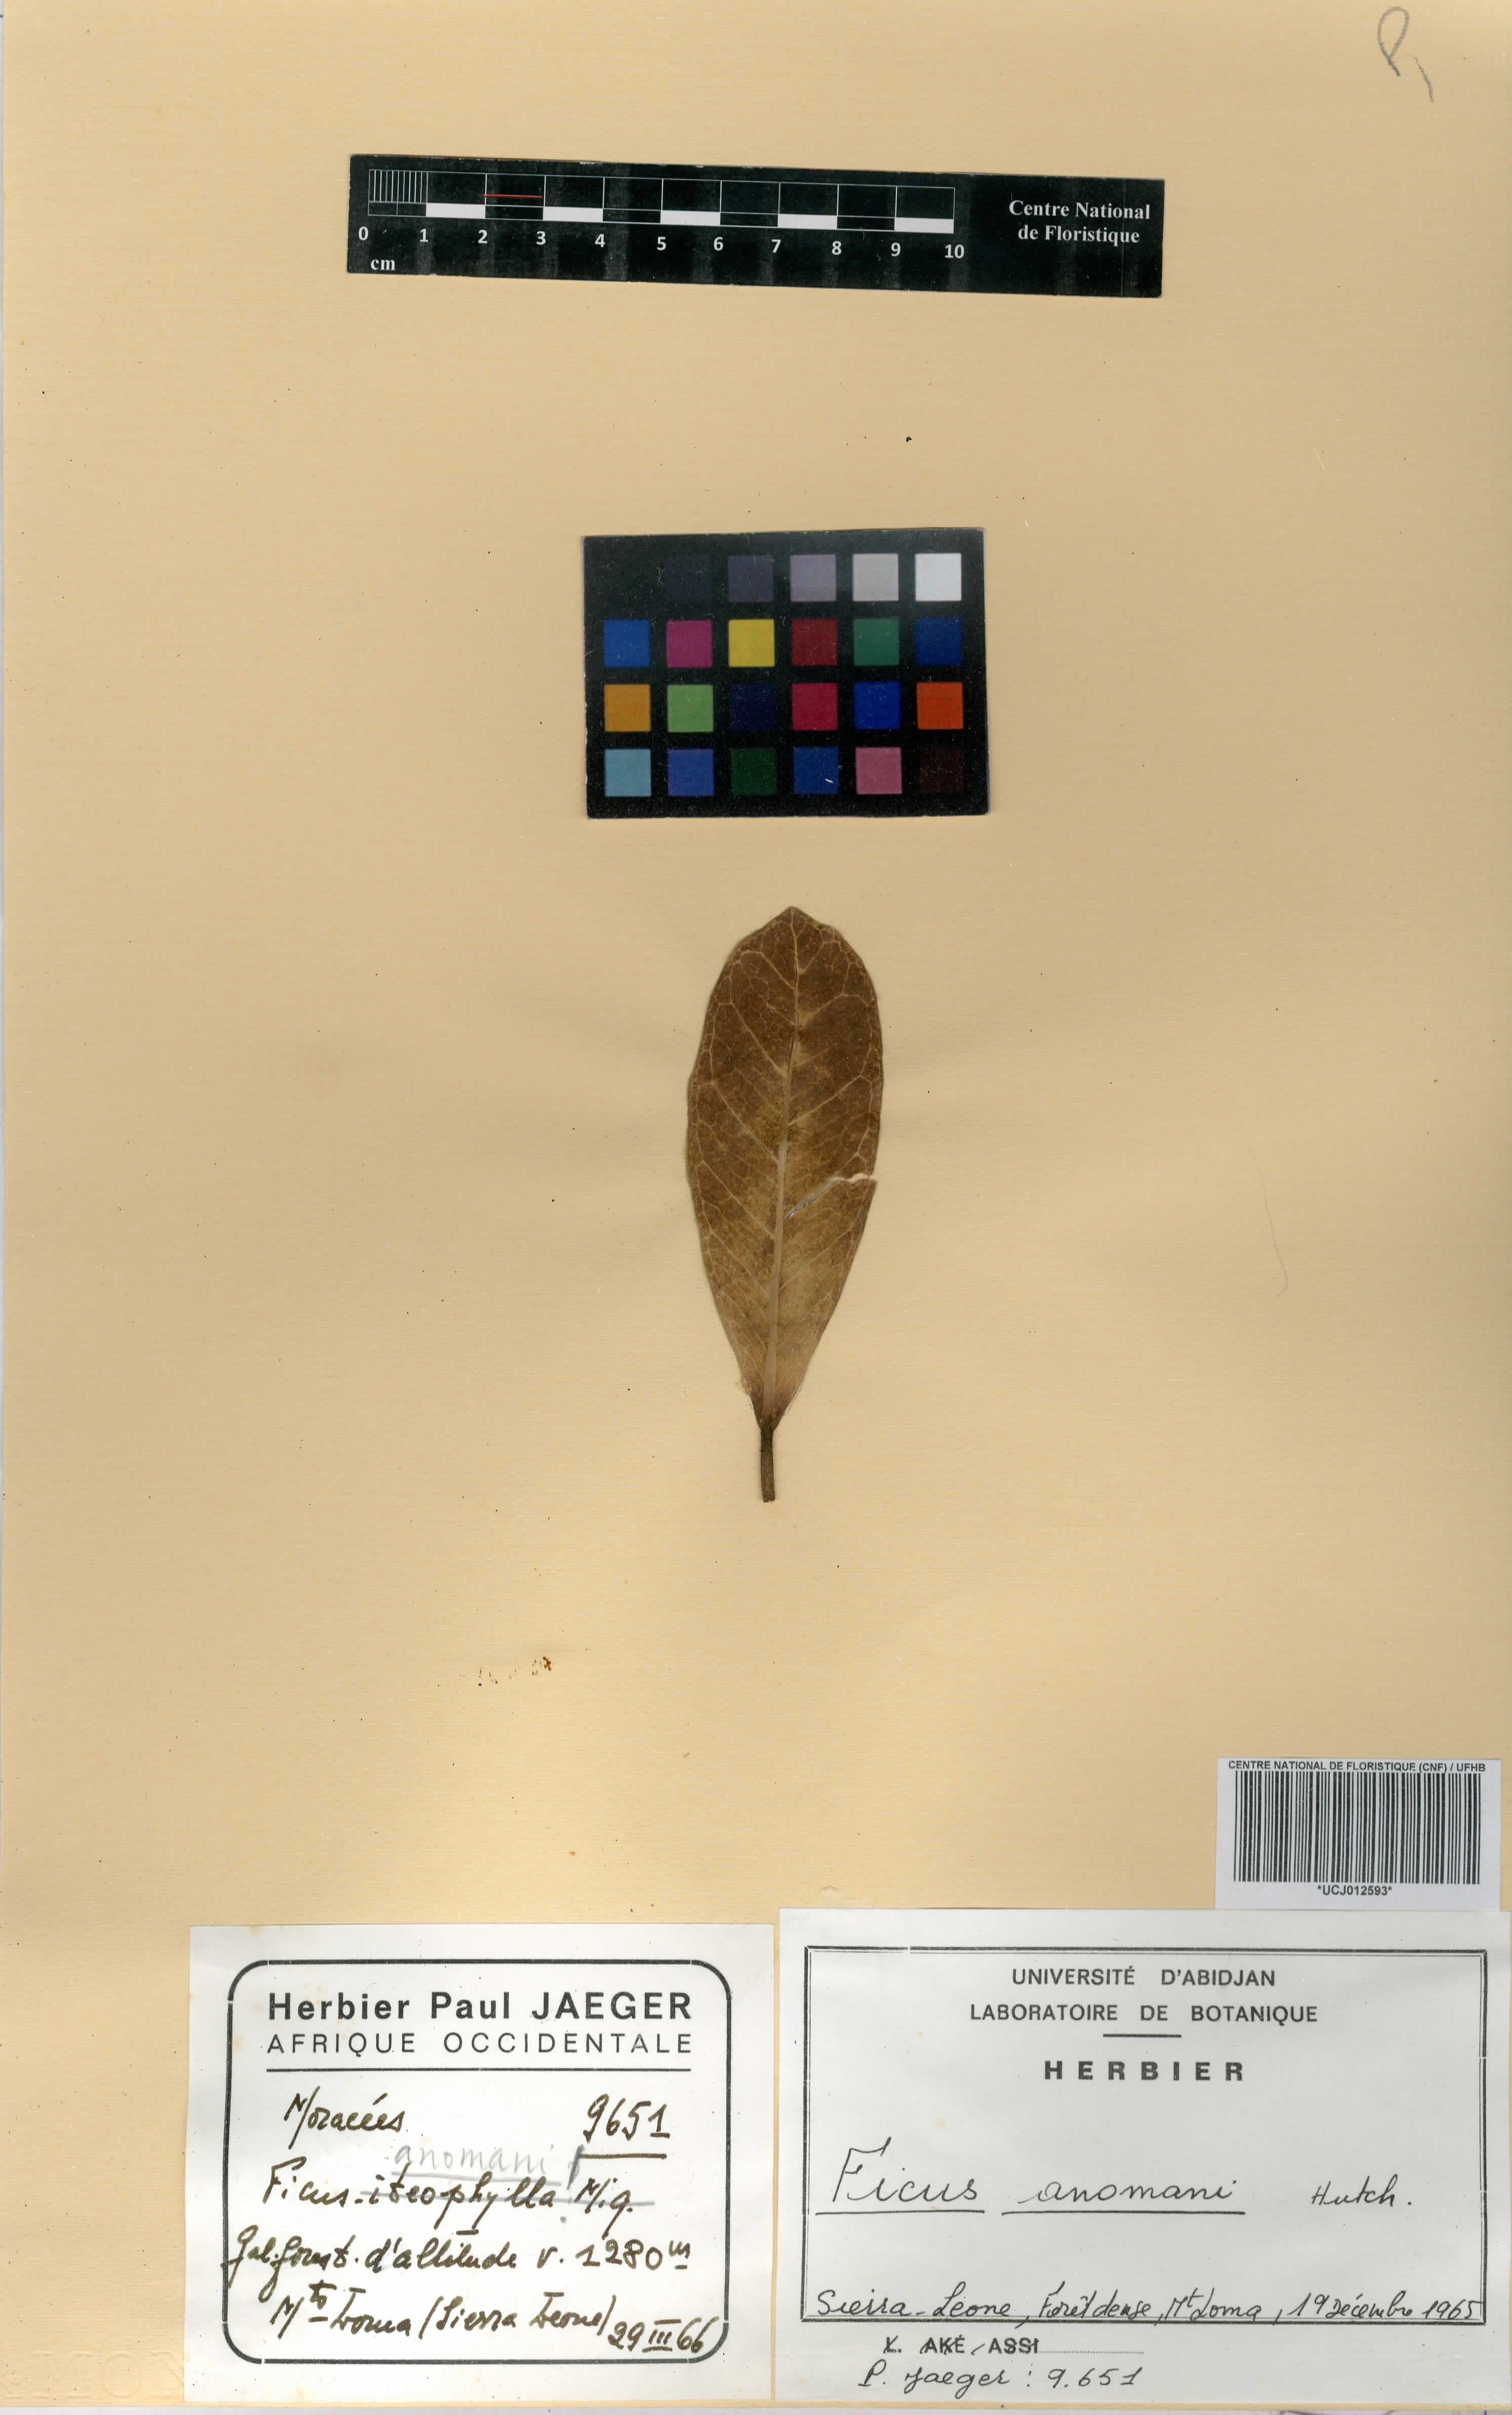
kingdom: Plantae
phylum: Tracheophyta
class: Magnoliopsida
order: Rosales
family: Moraceae
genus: Ficus
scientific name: Ficus craterostoma
